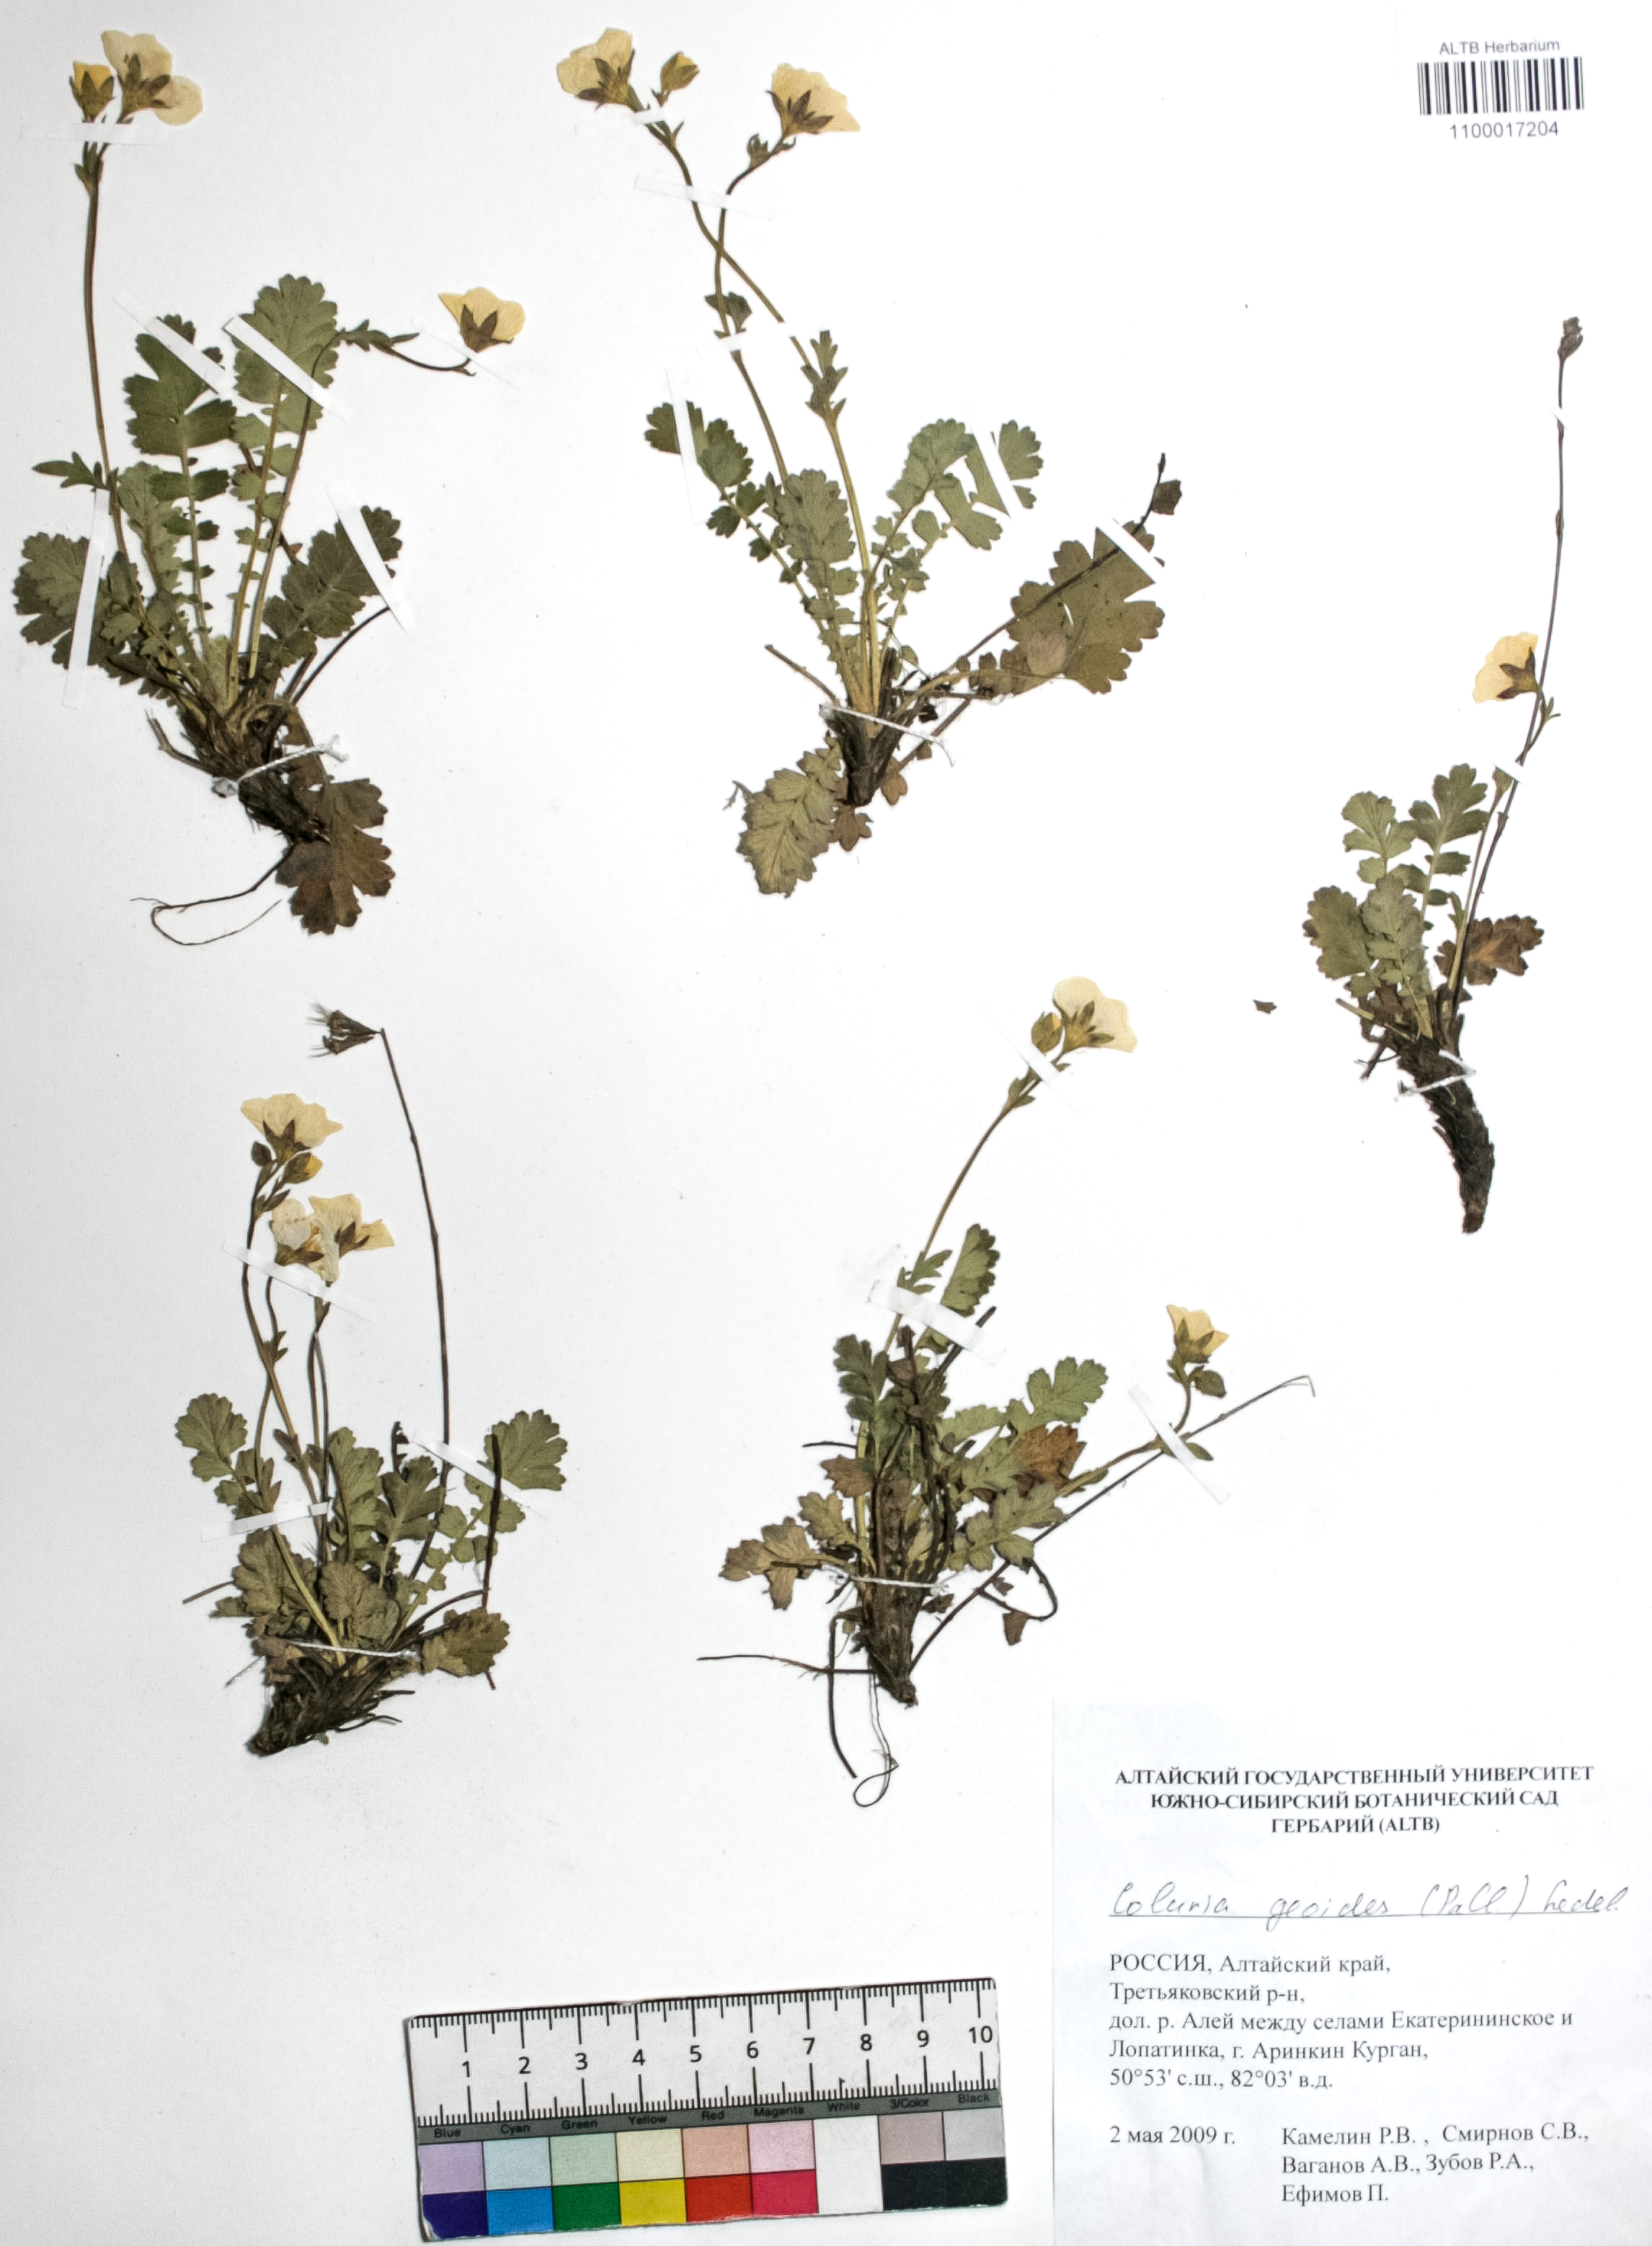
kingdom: Plantae
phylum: Tracheophyta
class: Magnoliopsida
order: Rosales
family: Rosaceae
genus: Geum
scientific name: Geum geoides
